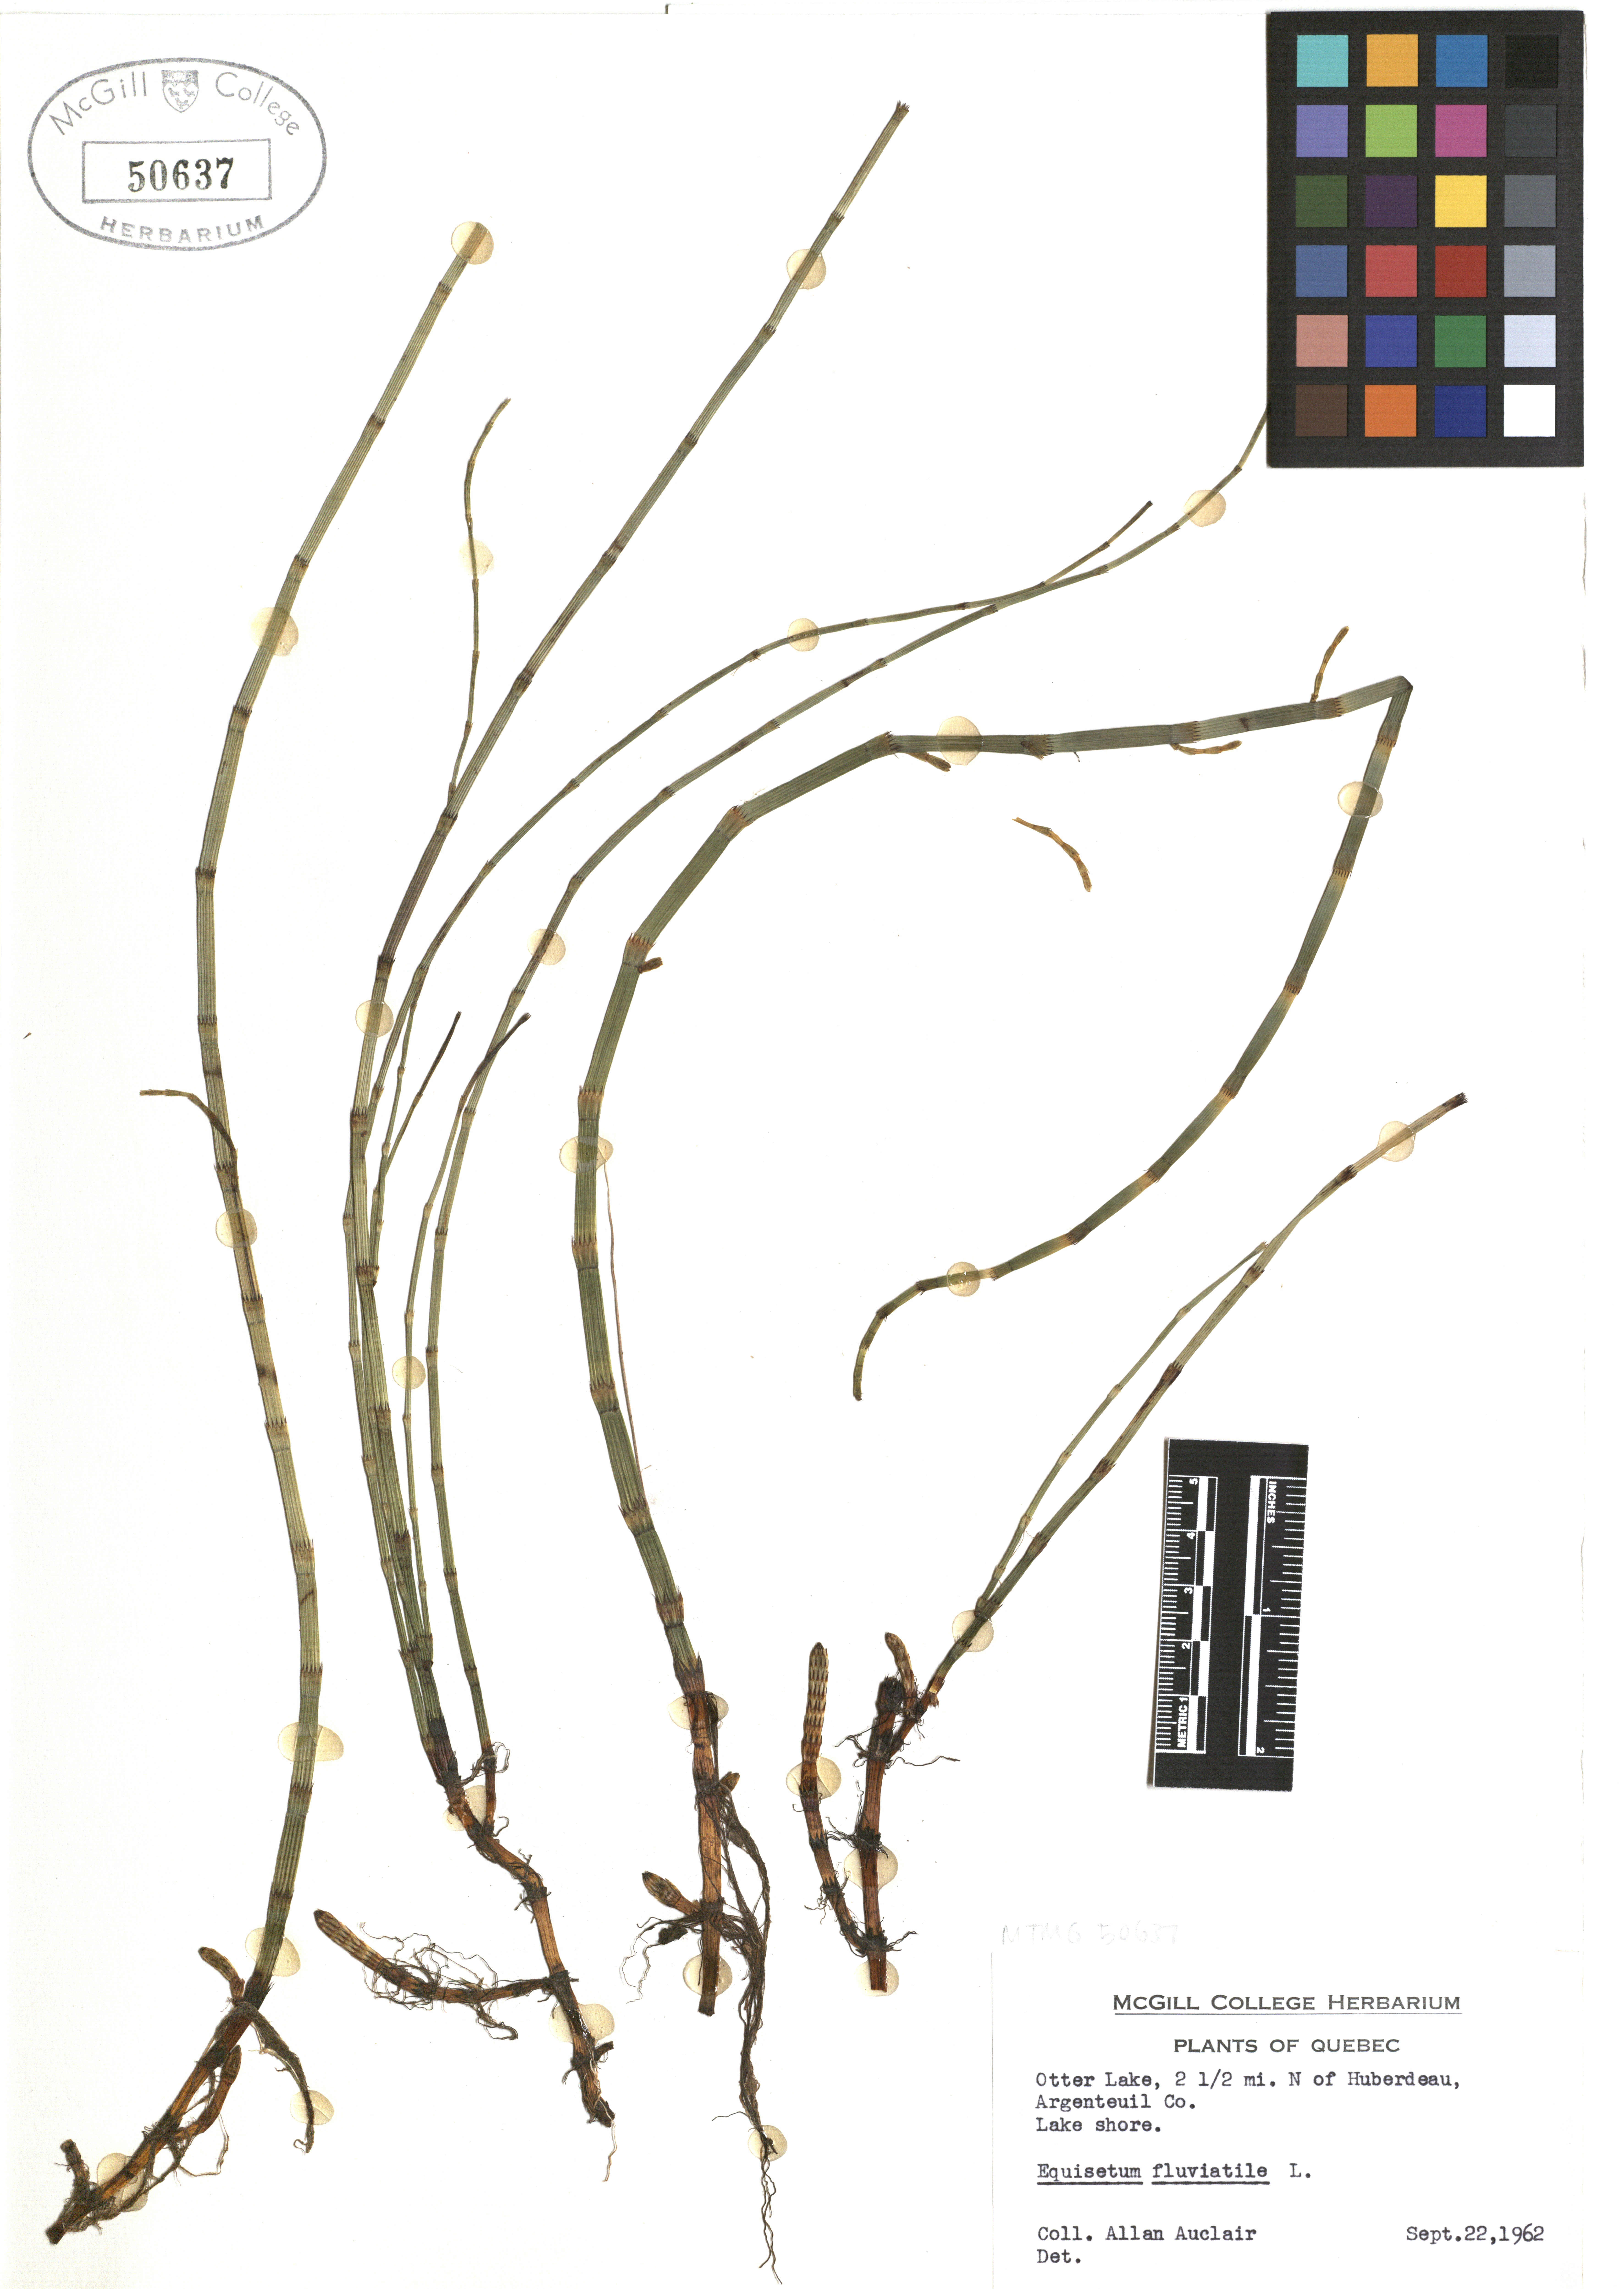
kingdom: Plantae
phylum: Tracheophyta
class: Polypodiopsida
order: Equisetales
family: Equisetaceae
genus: Equisetum
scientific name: Equisetum fluviatile
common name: Water horsetail
